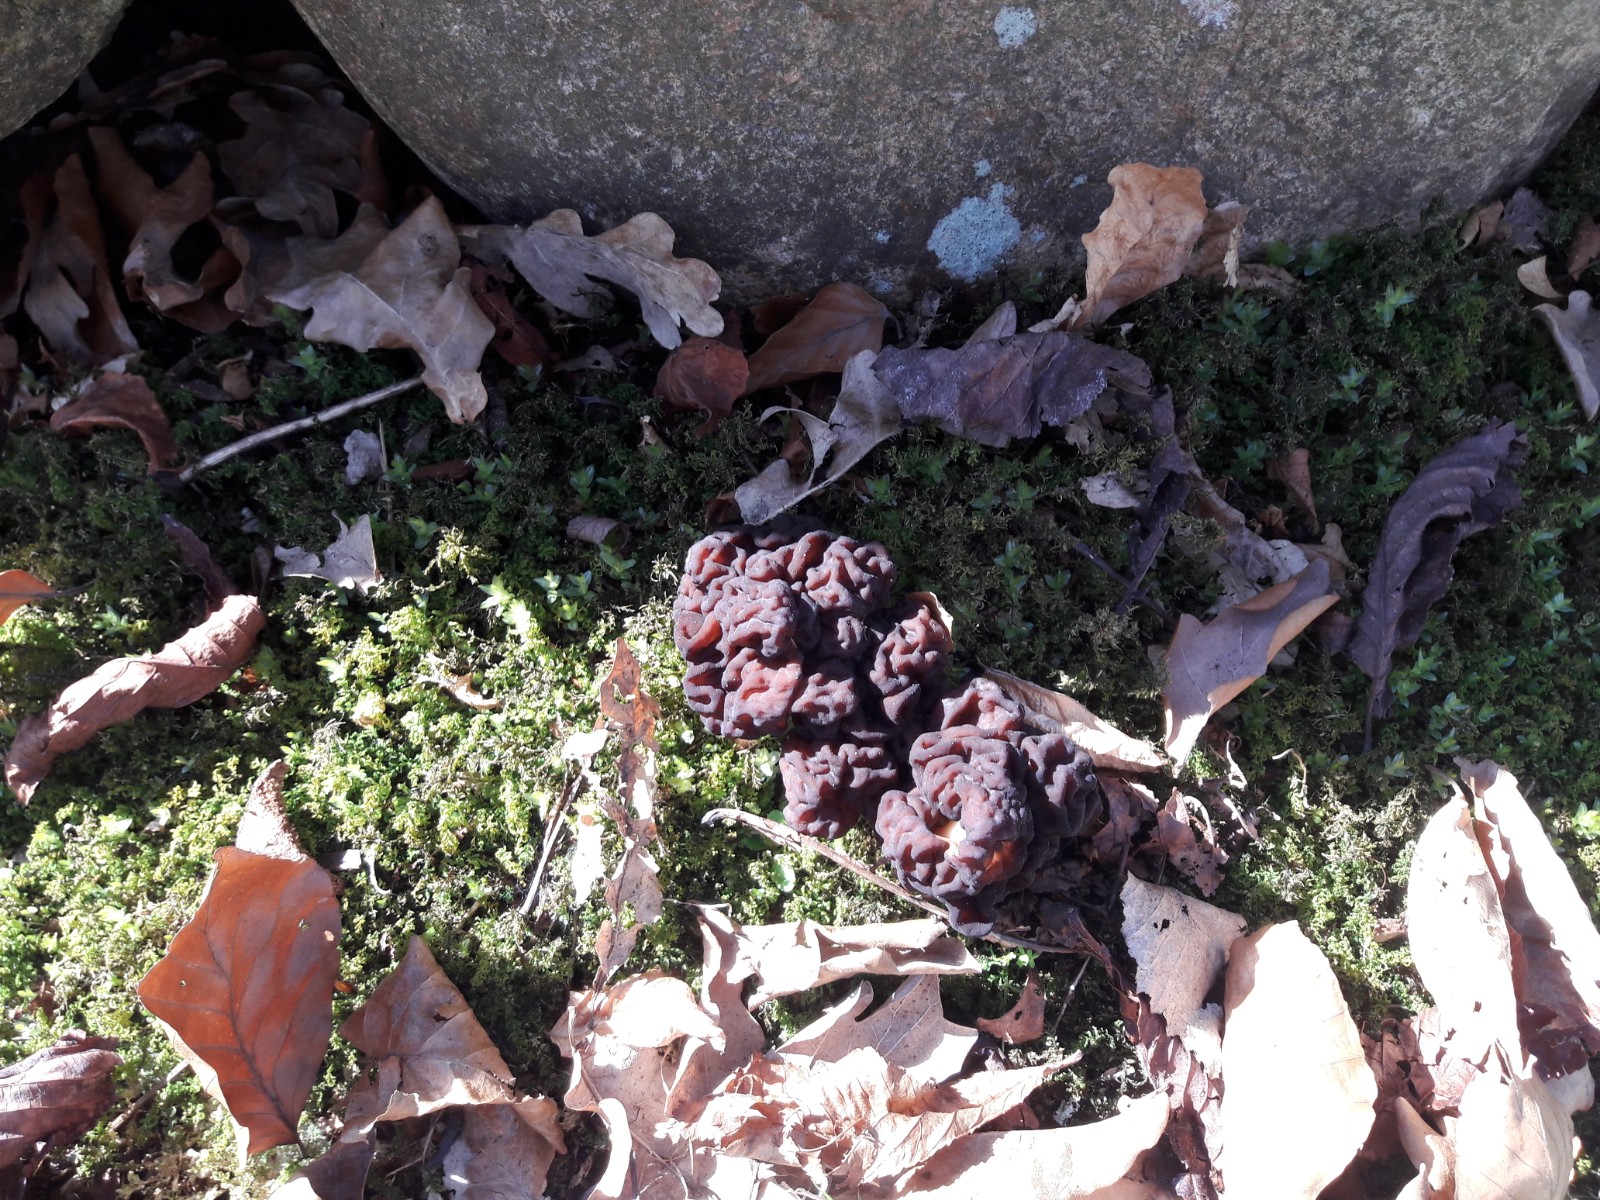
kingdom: Fungi
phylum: Ascomycota
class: Pezizomycetes
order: Pezizales
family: Discinaceae
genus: Gyromitra
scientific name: Gyromitra esculenta
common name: ægte stenmorkel
